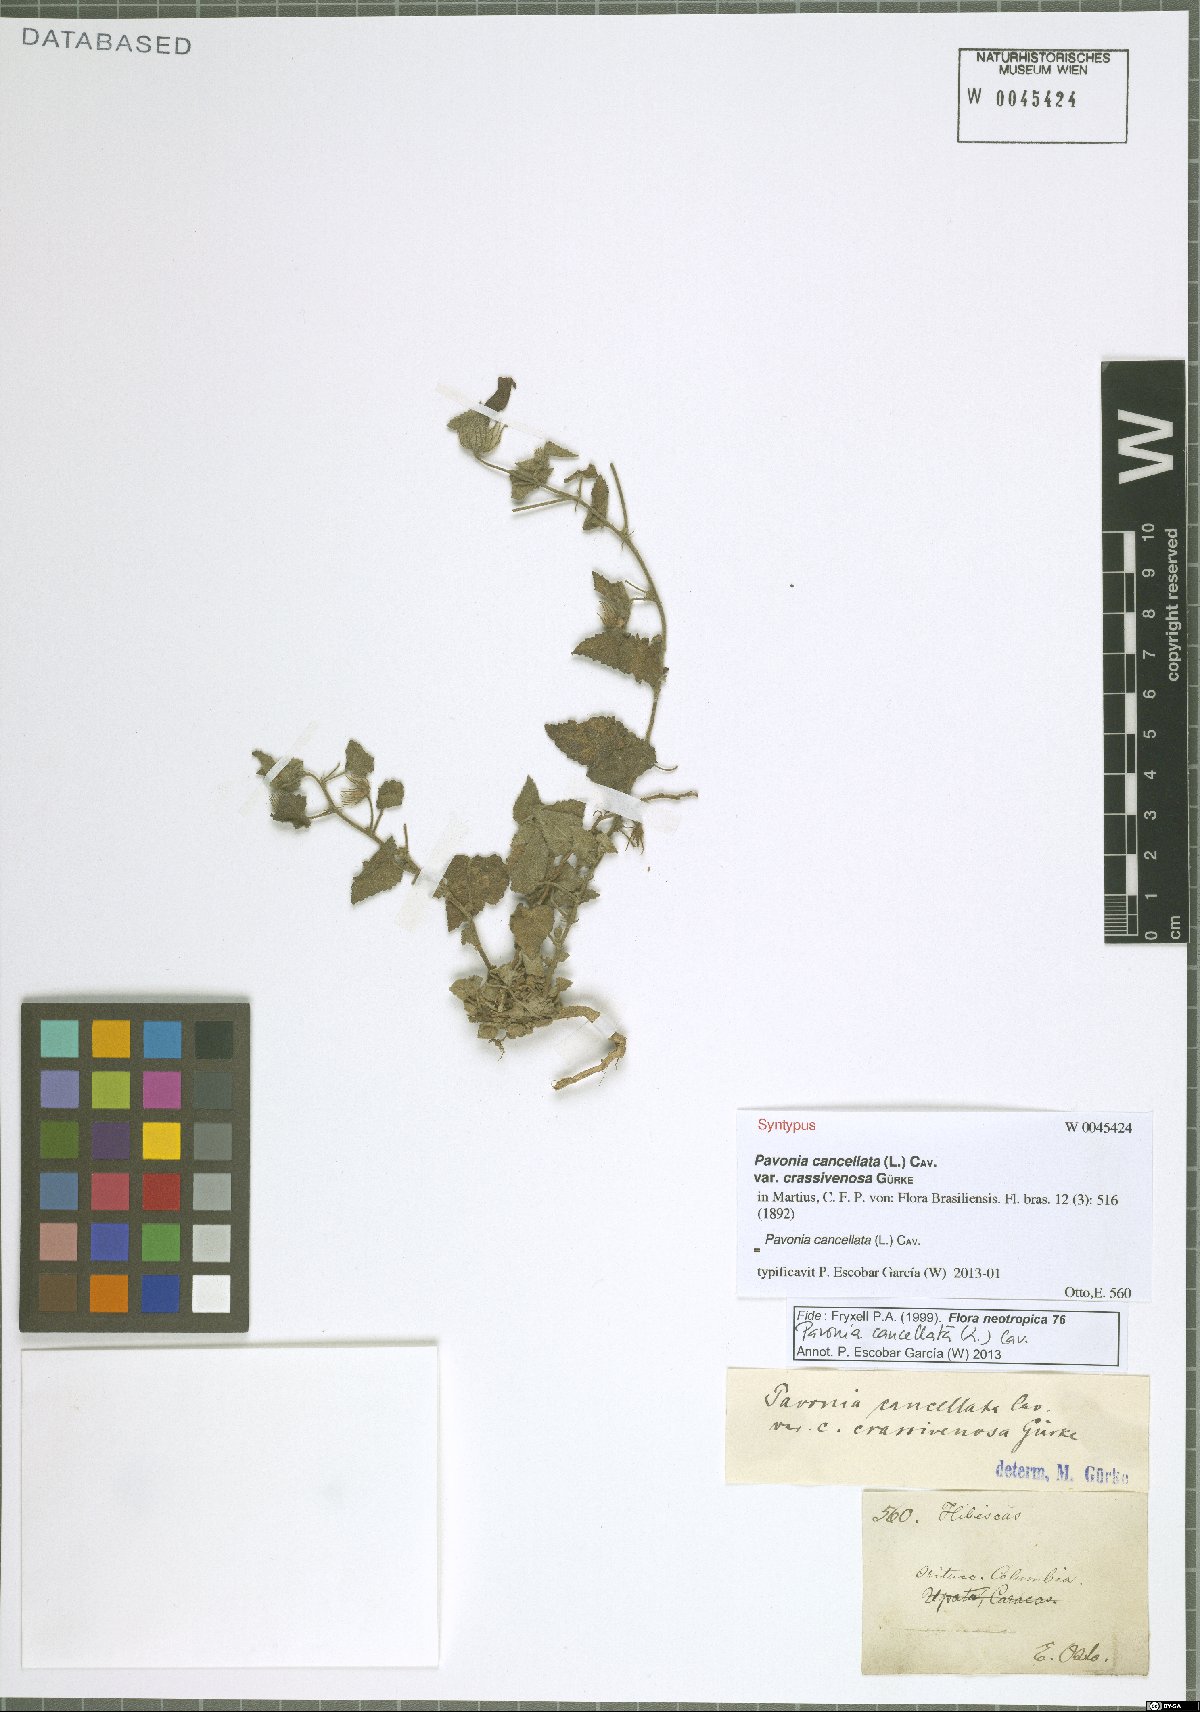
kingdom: Plantae
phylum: Tracheophyta
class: Magnoliopsida
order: Malvales
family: Malvaceae
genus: Pavonia
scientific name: Pavonia cancellata
